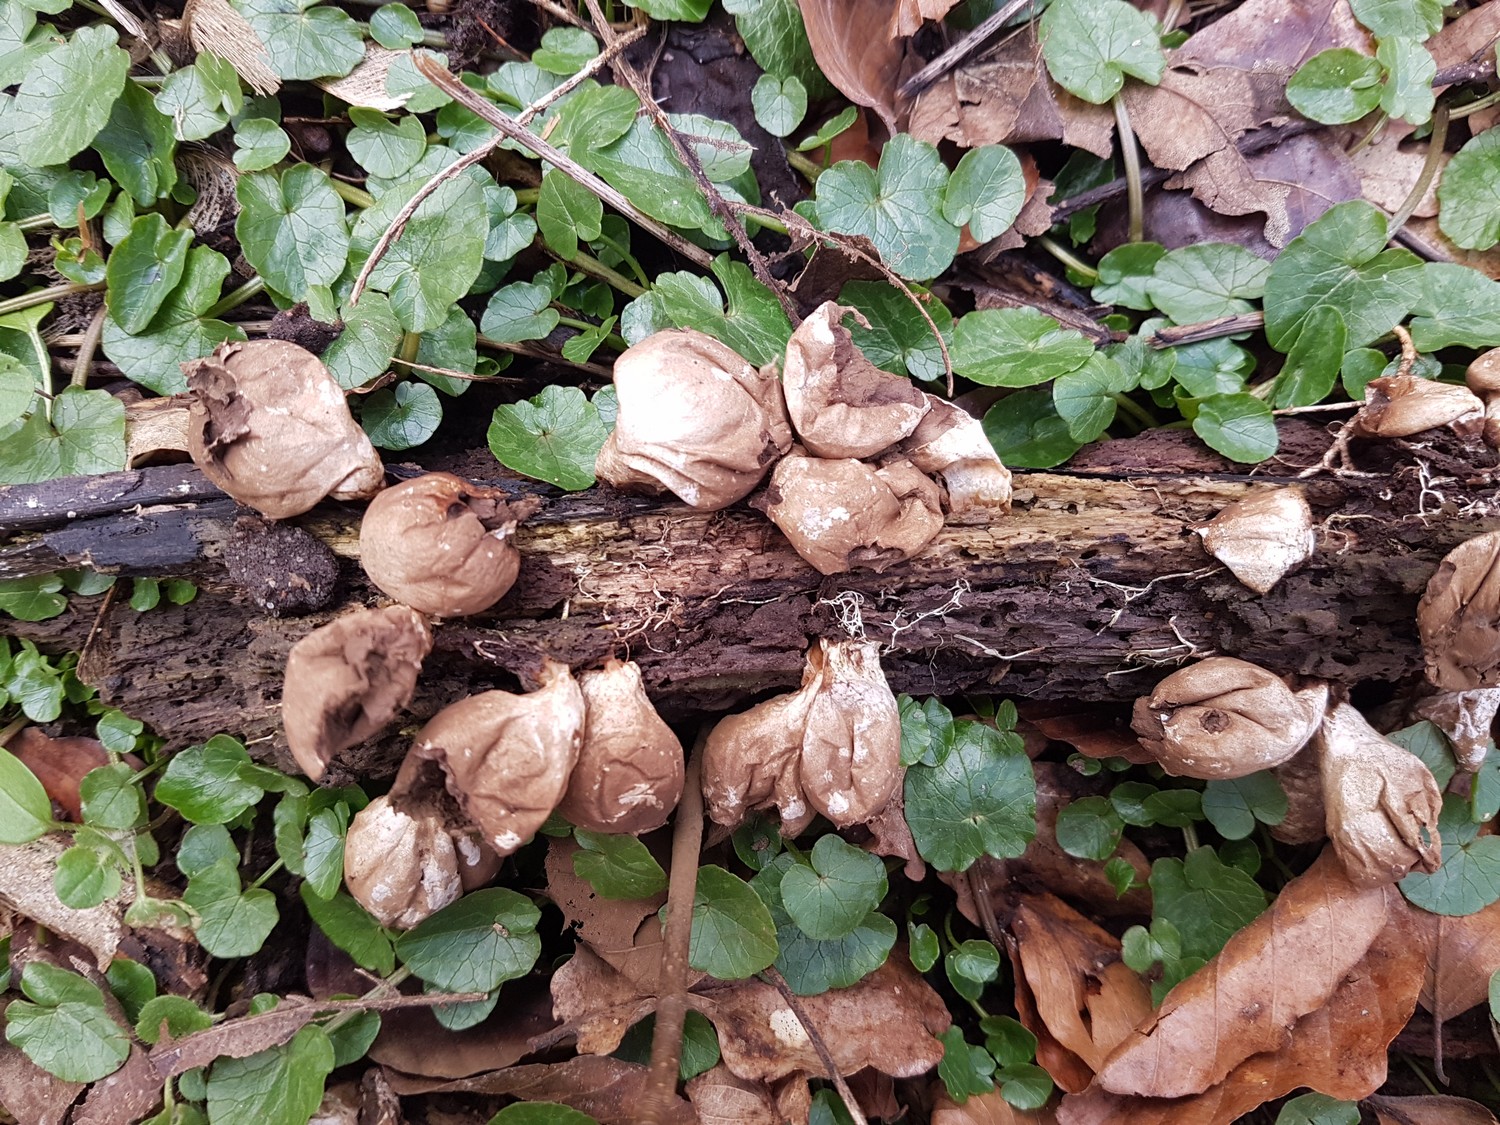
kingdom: Fungi
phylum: Basidiomycota
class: Agaricomycetes
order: Agaricales
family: Lycoperdaceae
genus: Apioperdon
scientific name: Apioperdon pyriforme
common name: pære-støvbold
